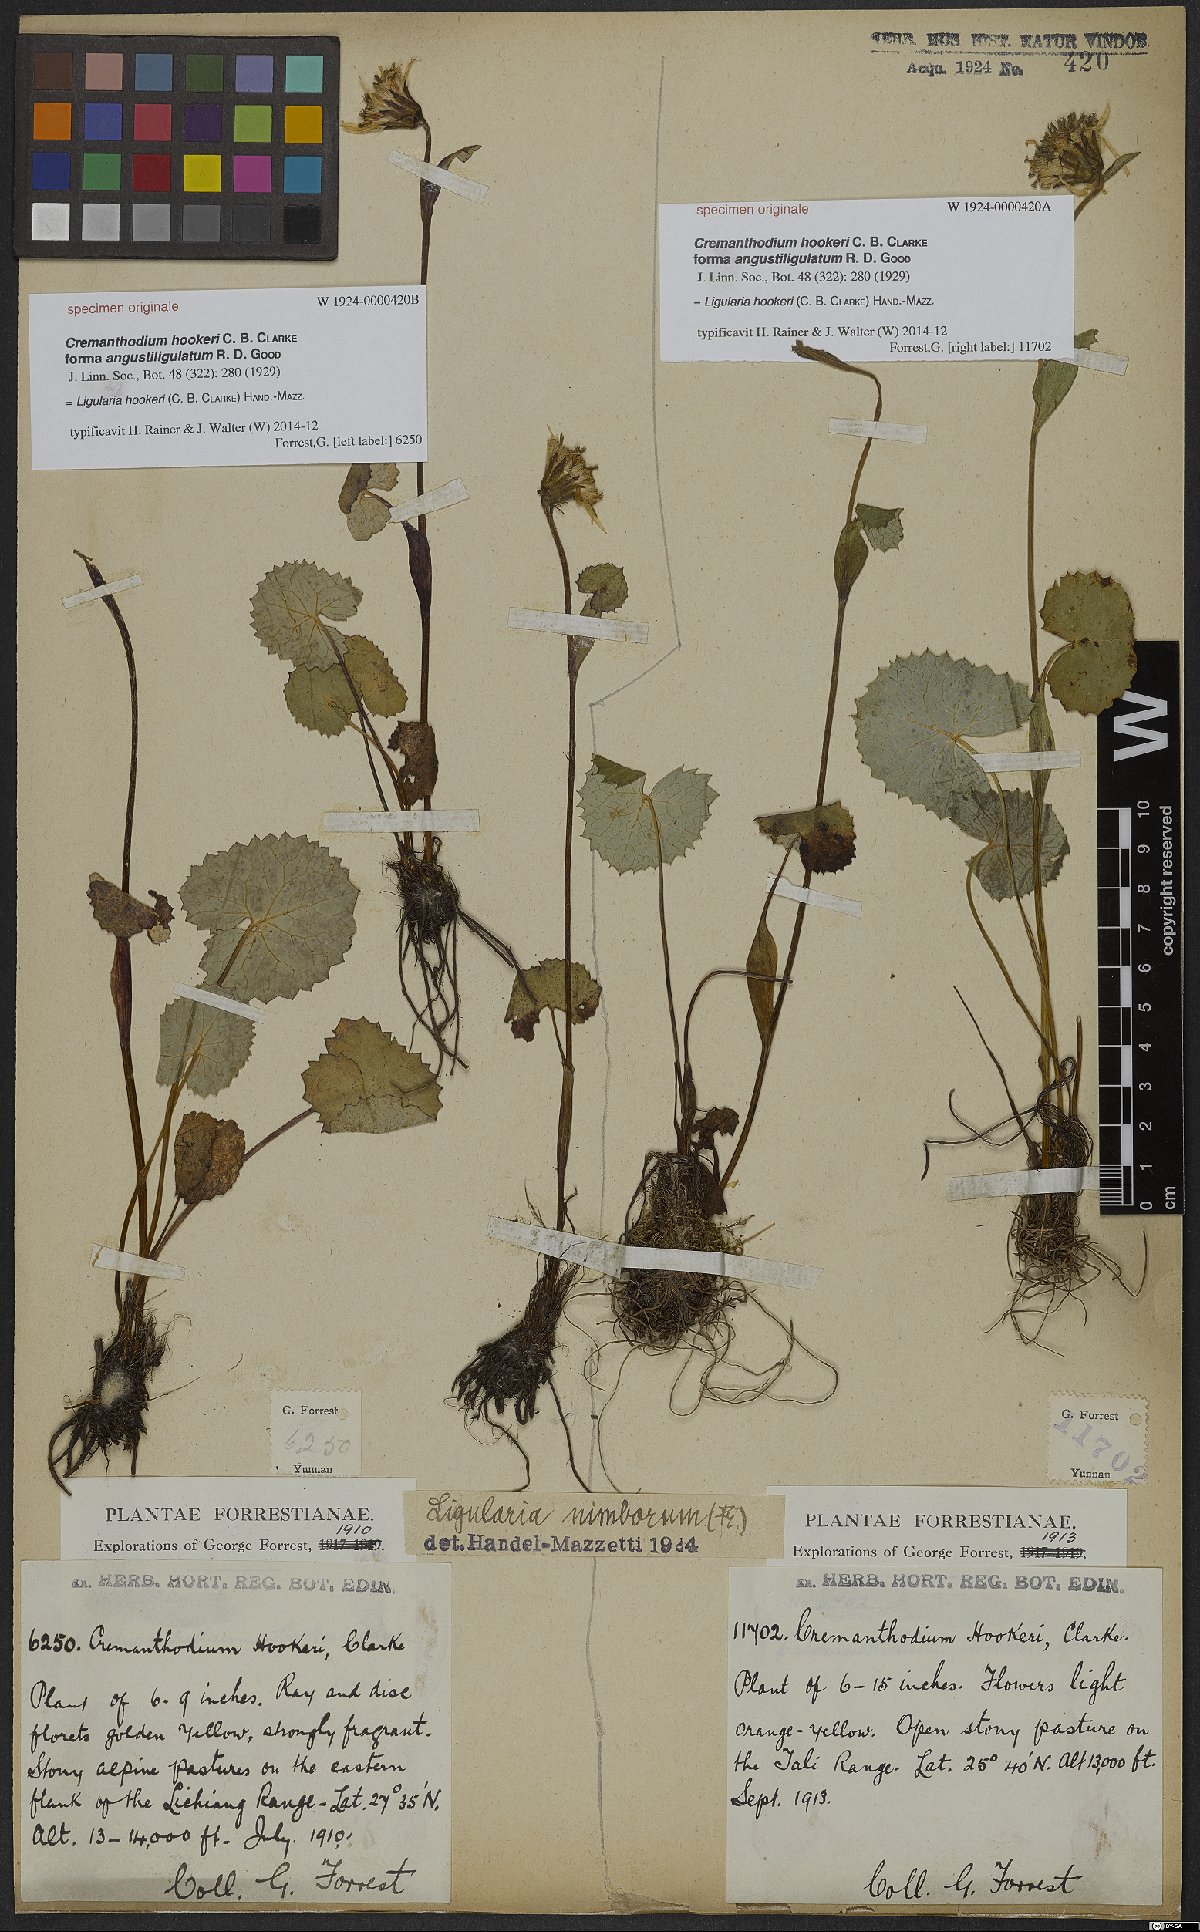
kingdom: Plantae
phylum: Tracheophyta
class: Magnoliopsida
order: Asterales
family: Asteraceae
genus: Ligularia
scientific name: Ligularia hookeri
